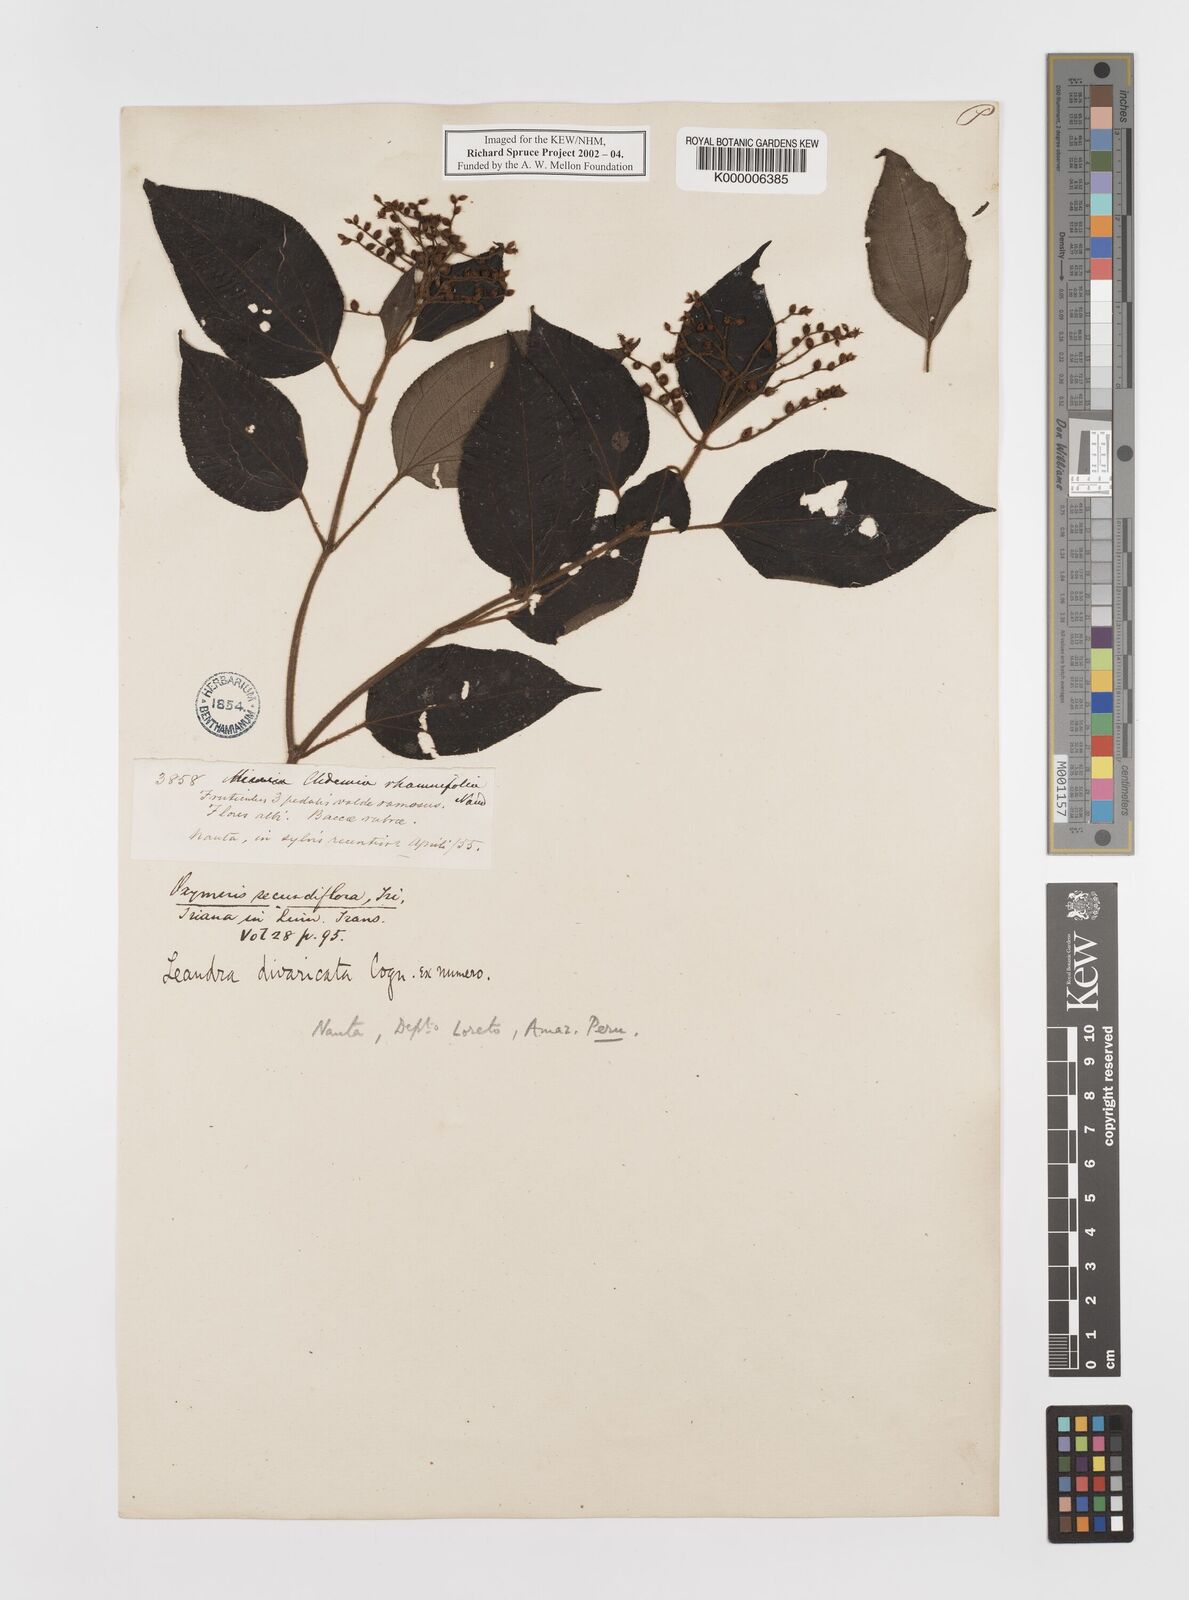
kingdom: Plantae
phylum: Tracheophyta
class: Magnoliopsida
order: Myrtales
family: Melastomataceae
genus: Miconia
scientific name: Miconia secundivaricata
